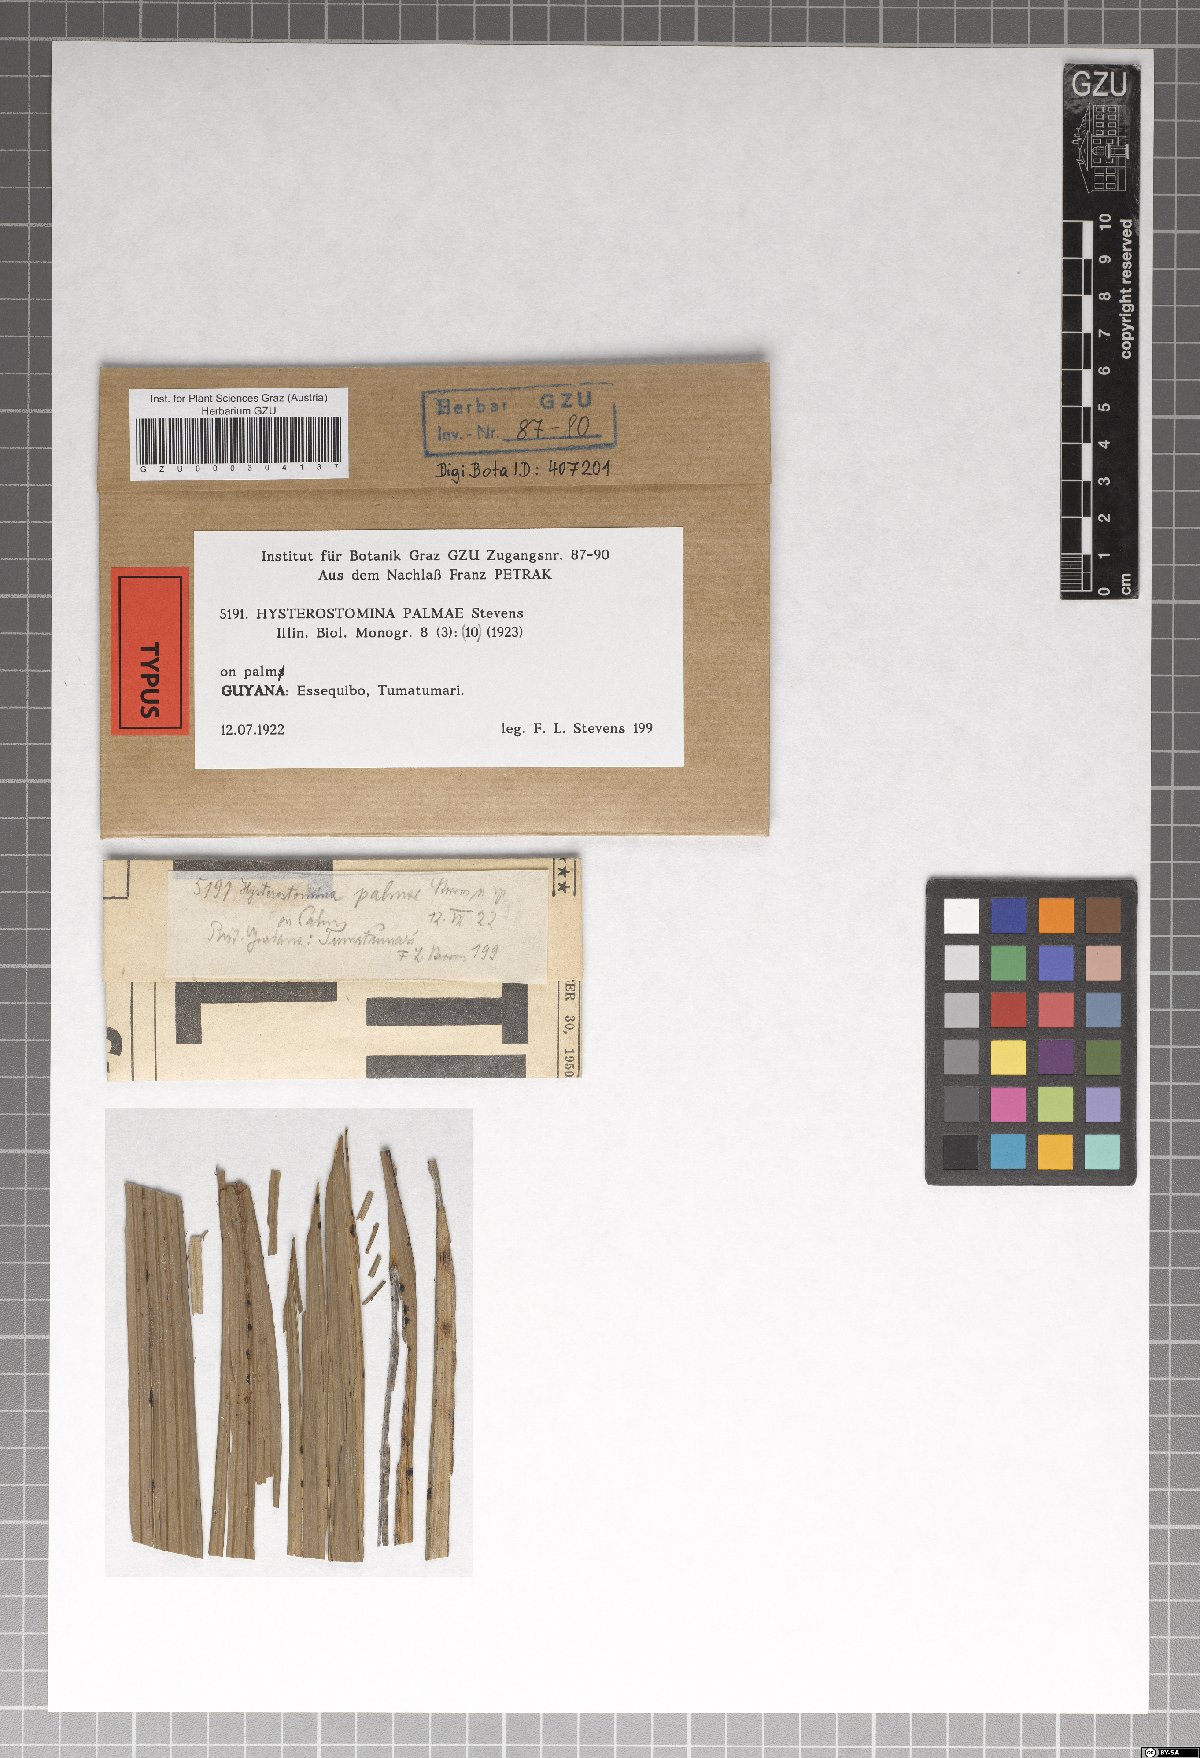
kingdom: Fungi
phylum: Ascomycota
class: Dothideomycetes
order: Asterinales
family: Parmulariaceae
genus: Hysterostomella
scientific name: Hysterostomella palmae
